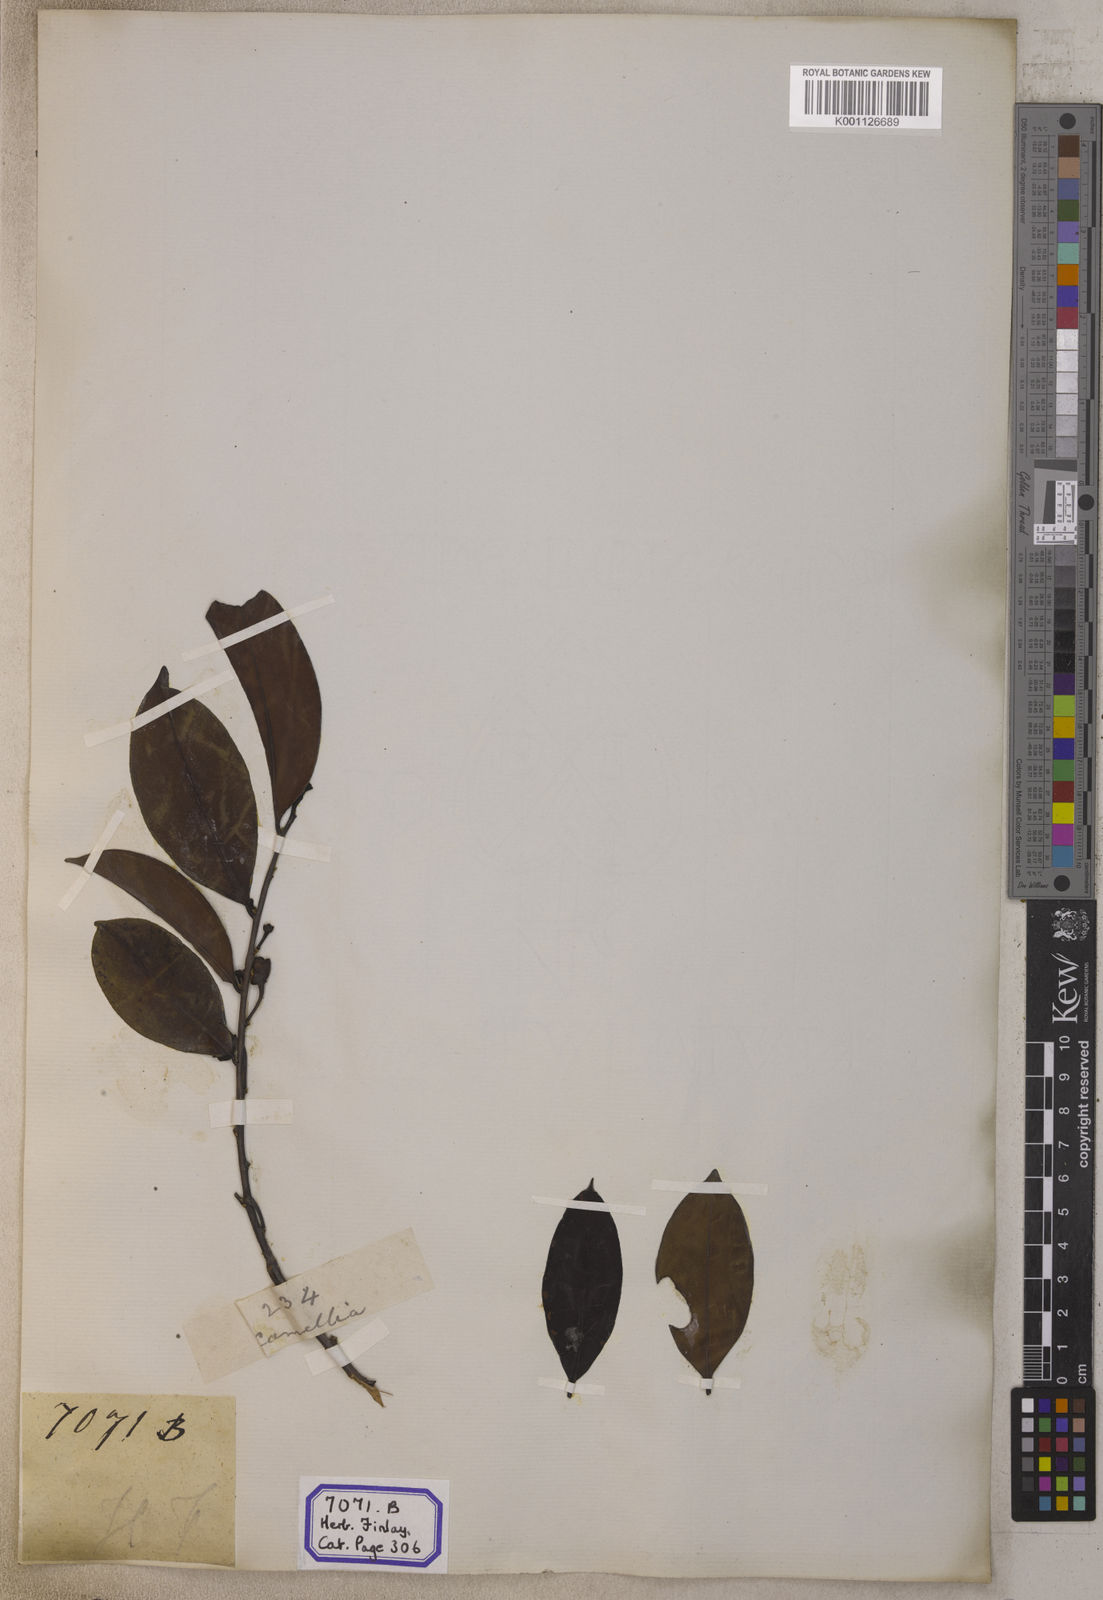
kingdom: Plantae
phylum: Tracheophyta
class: Magnoliopsida
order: Ericales
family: Pentaphylacaceae
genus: Adinandra
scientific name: Adinandra dumosa
